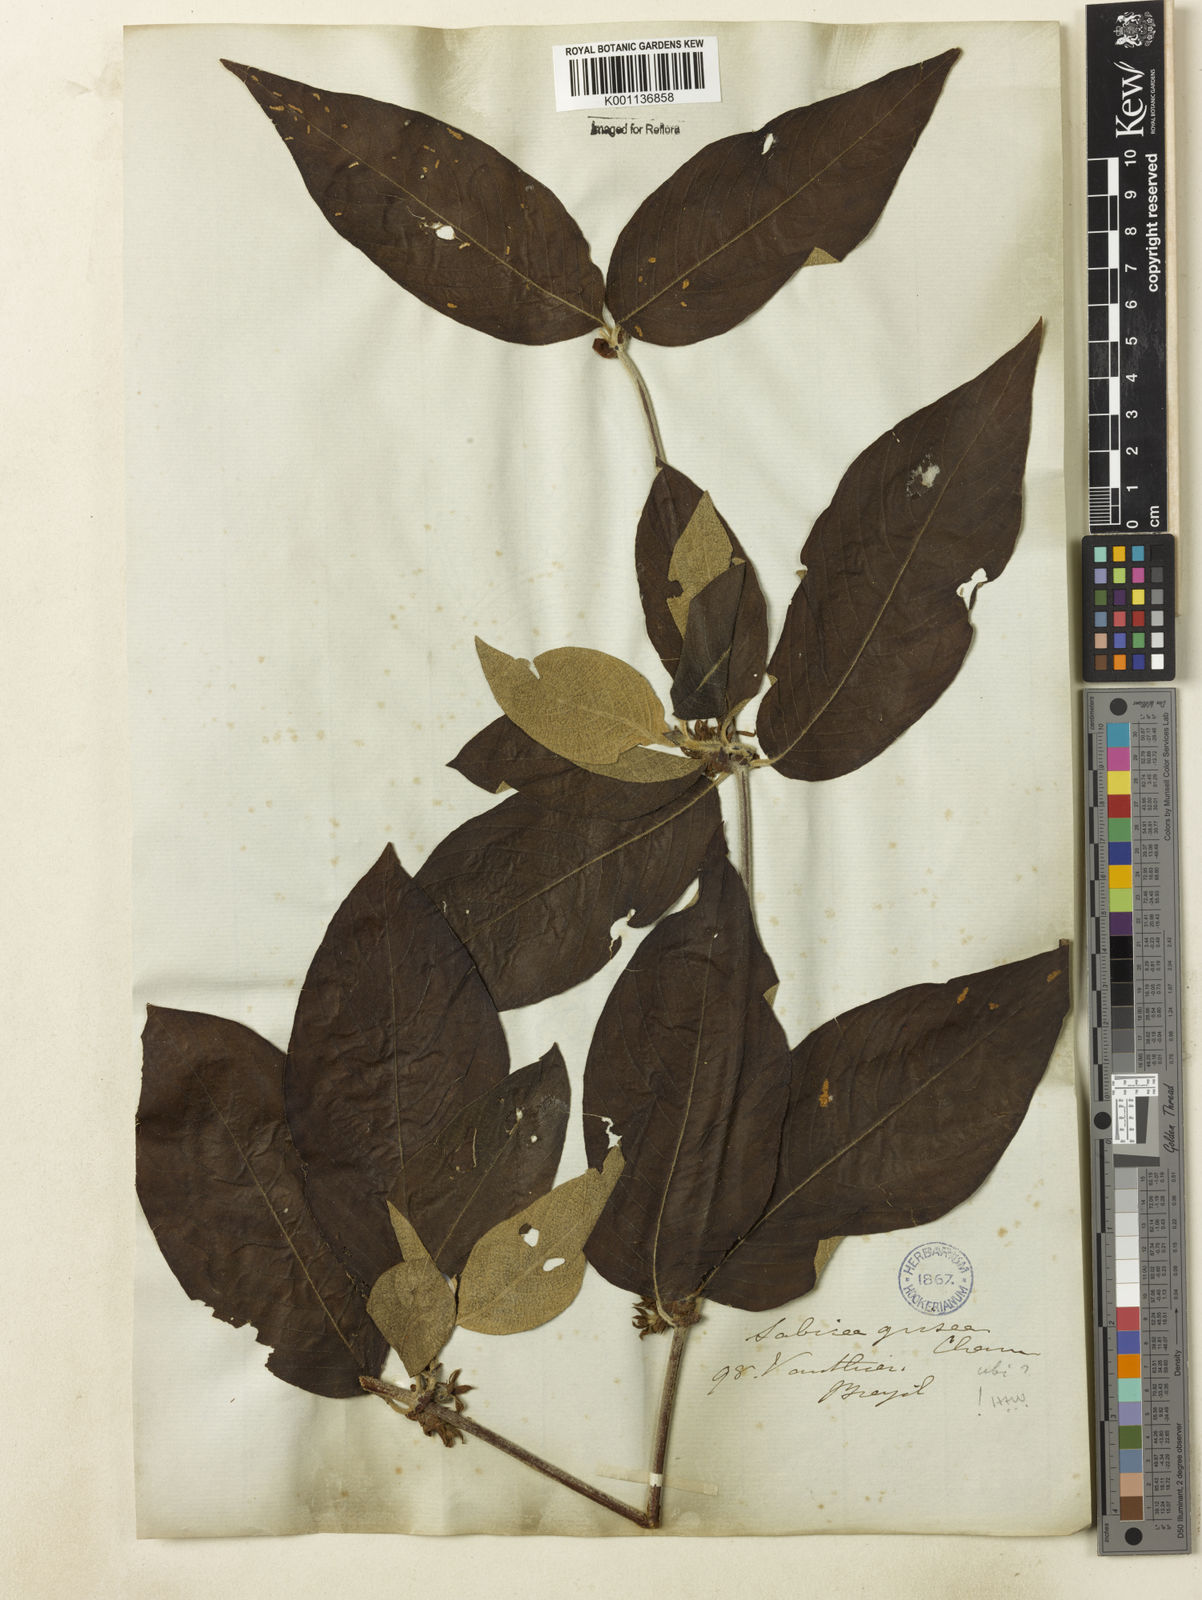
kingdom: Plantae
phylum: Tracheophyta
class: Magnoliopsida
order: Gentianales
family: Rubiaceae
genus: Sabicea
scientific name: Sabicea grisea
